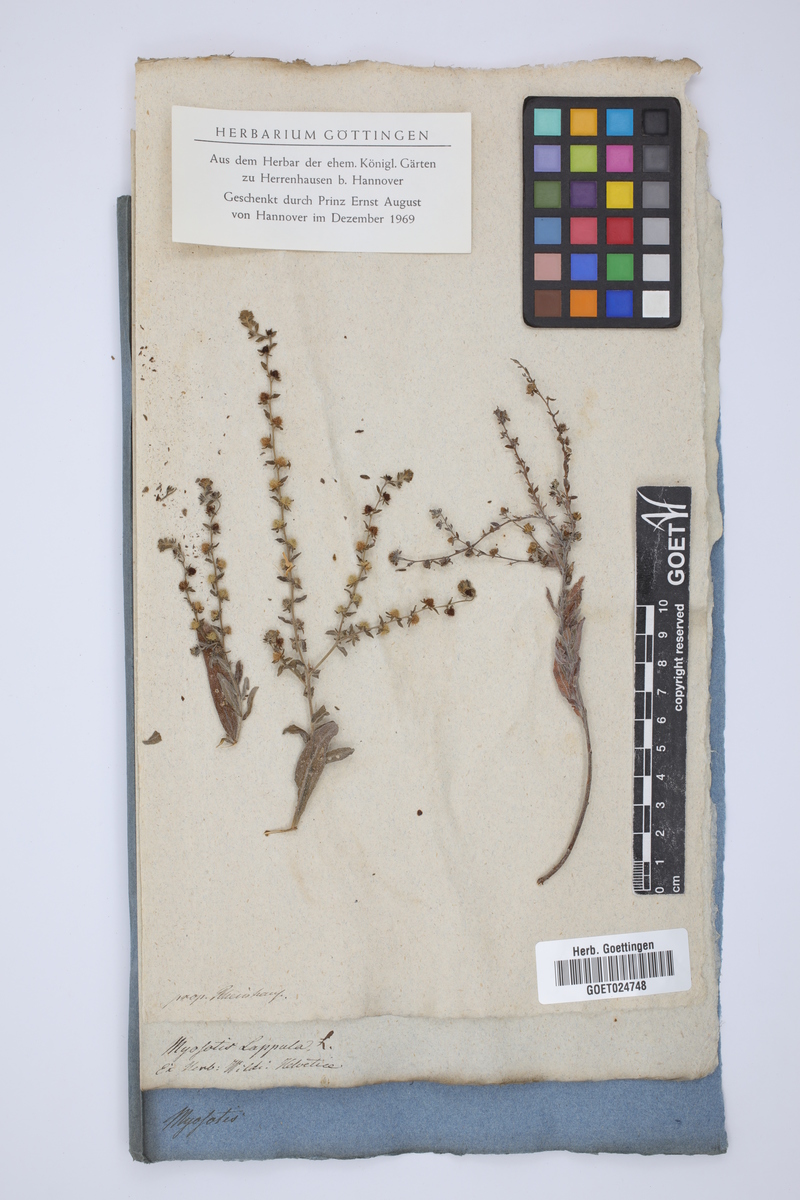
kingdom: Plantae
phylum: Tracheophyta
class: Magnoliopsida
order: Boraginales
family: Boraginaceae
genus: Lappula
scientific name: Lappula squarrosa
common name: European stickseed
